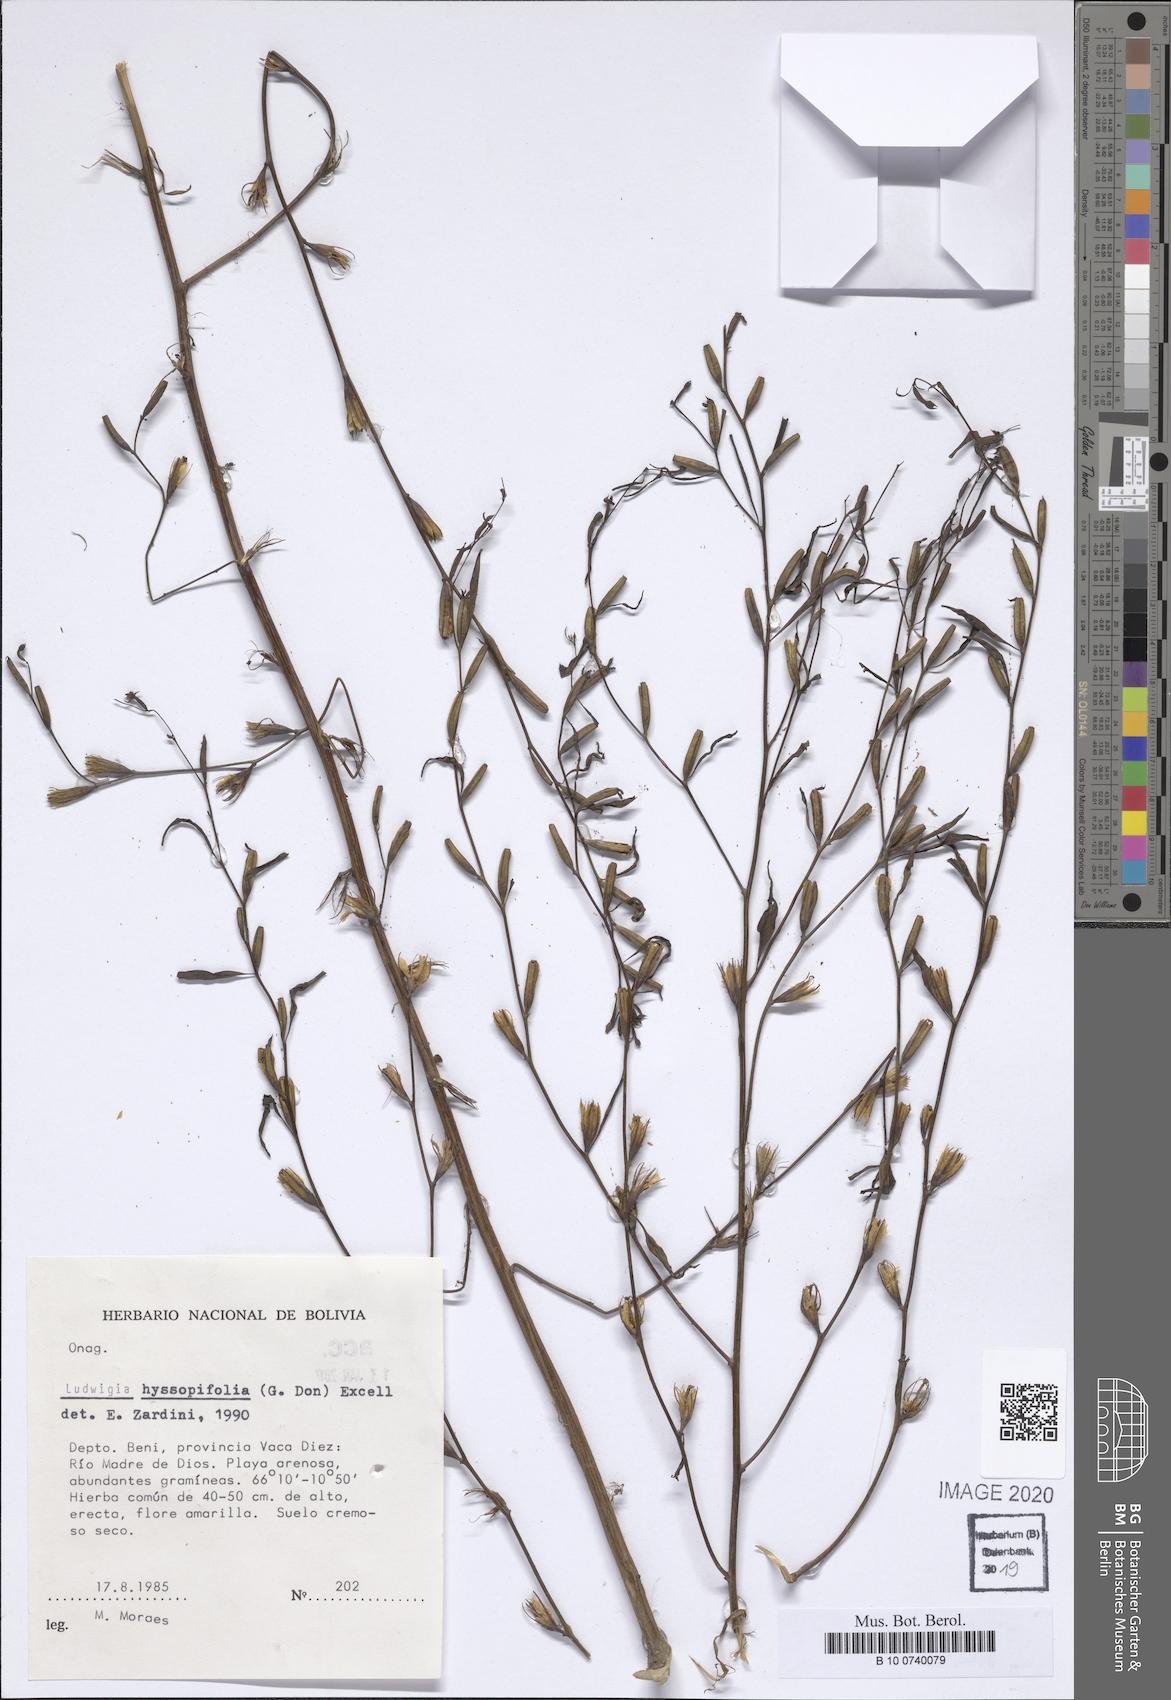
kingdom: Plantae
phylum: Tracheophyta
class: Magnoliopsida
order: Myrtales
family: Onagraceae
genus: Ludwigia
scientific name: Ludwigia hyssopifolia
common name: Linear leaf water primrose
